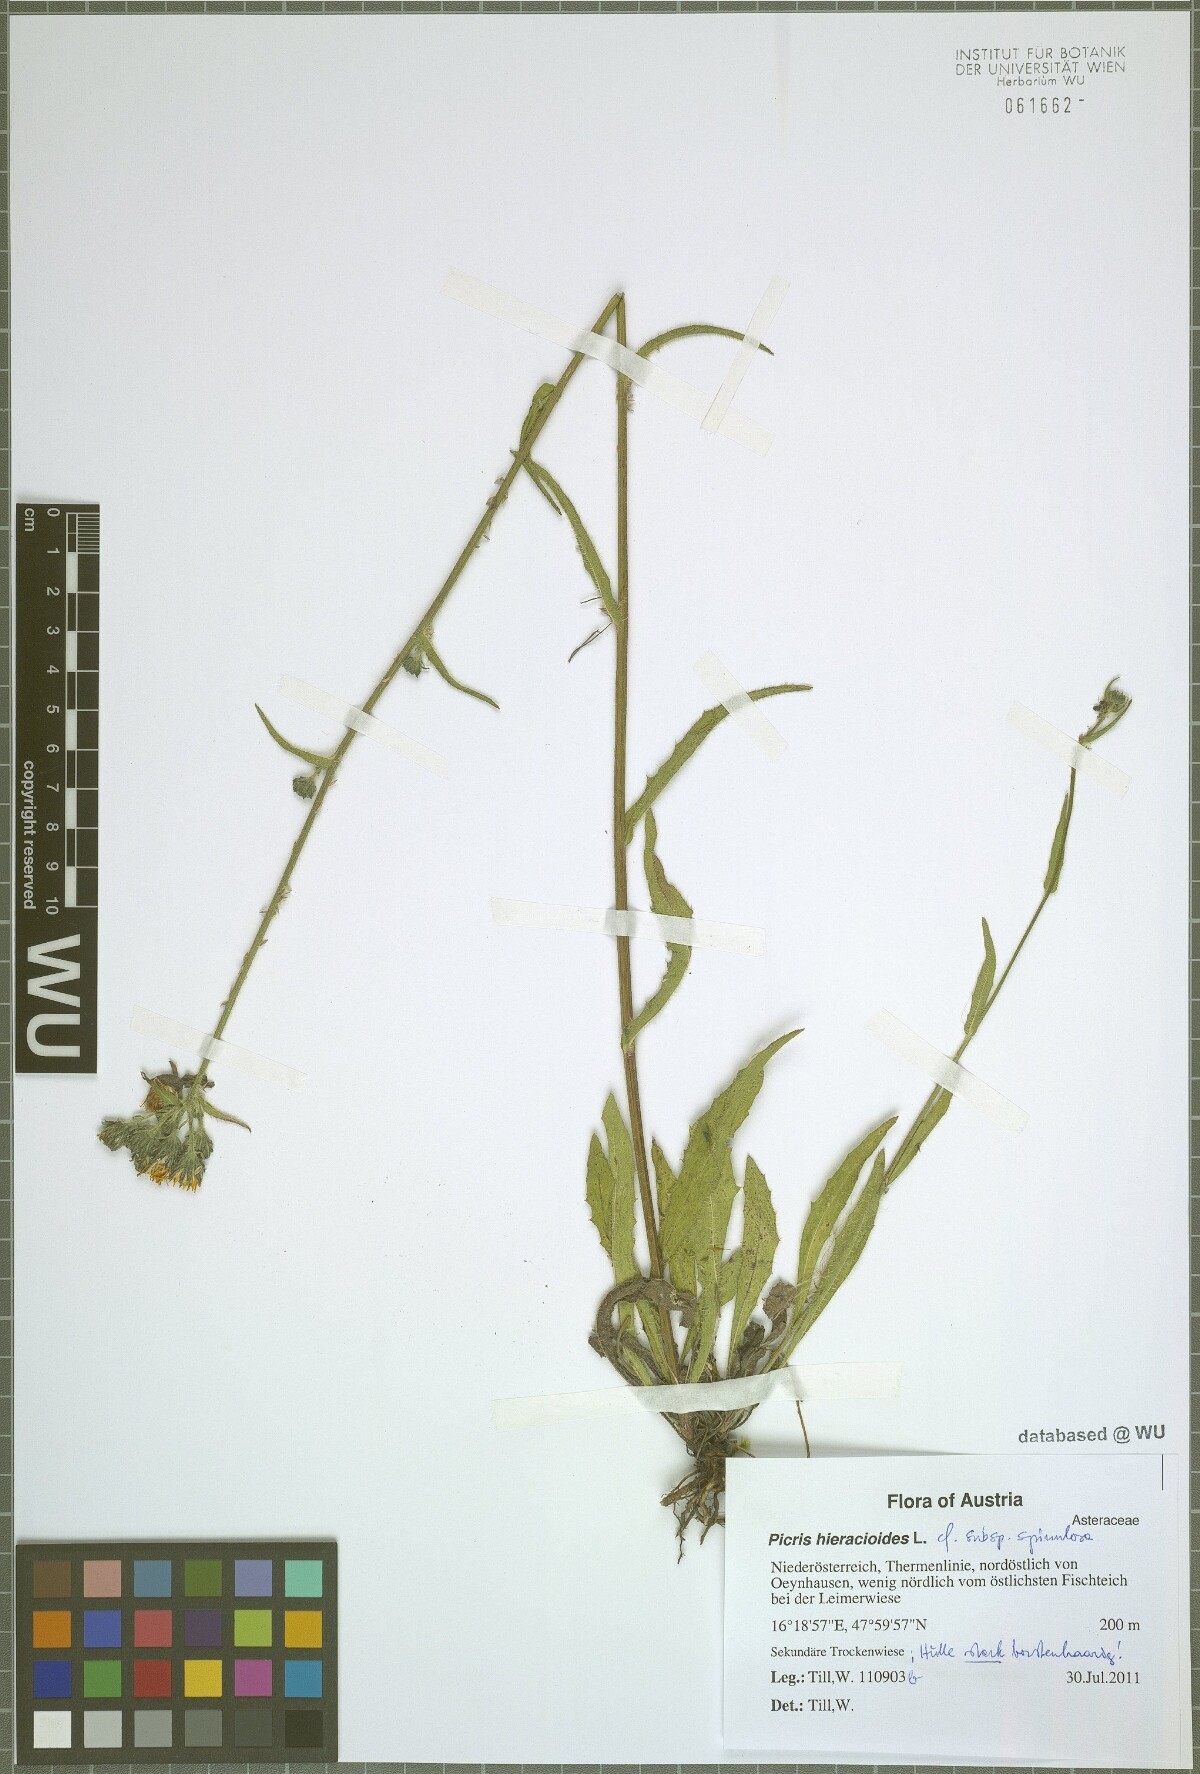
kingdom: Plantae
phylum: Tracheophyta
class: Magnoliopsida
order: Asterales
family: Asteraceae
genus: Picris
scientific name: Picris hieracioides
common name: Hawkweed oxtongue
